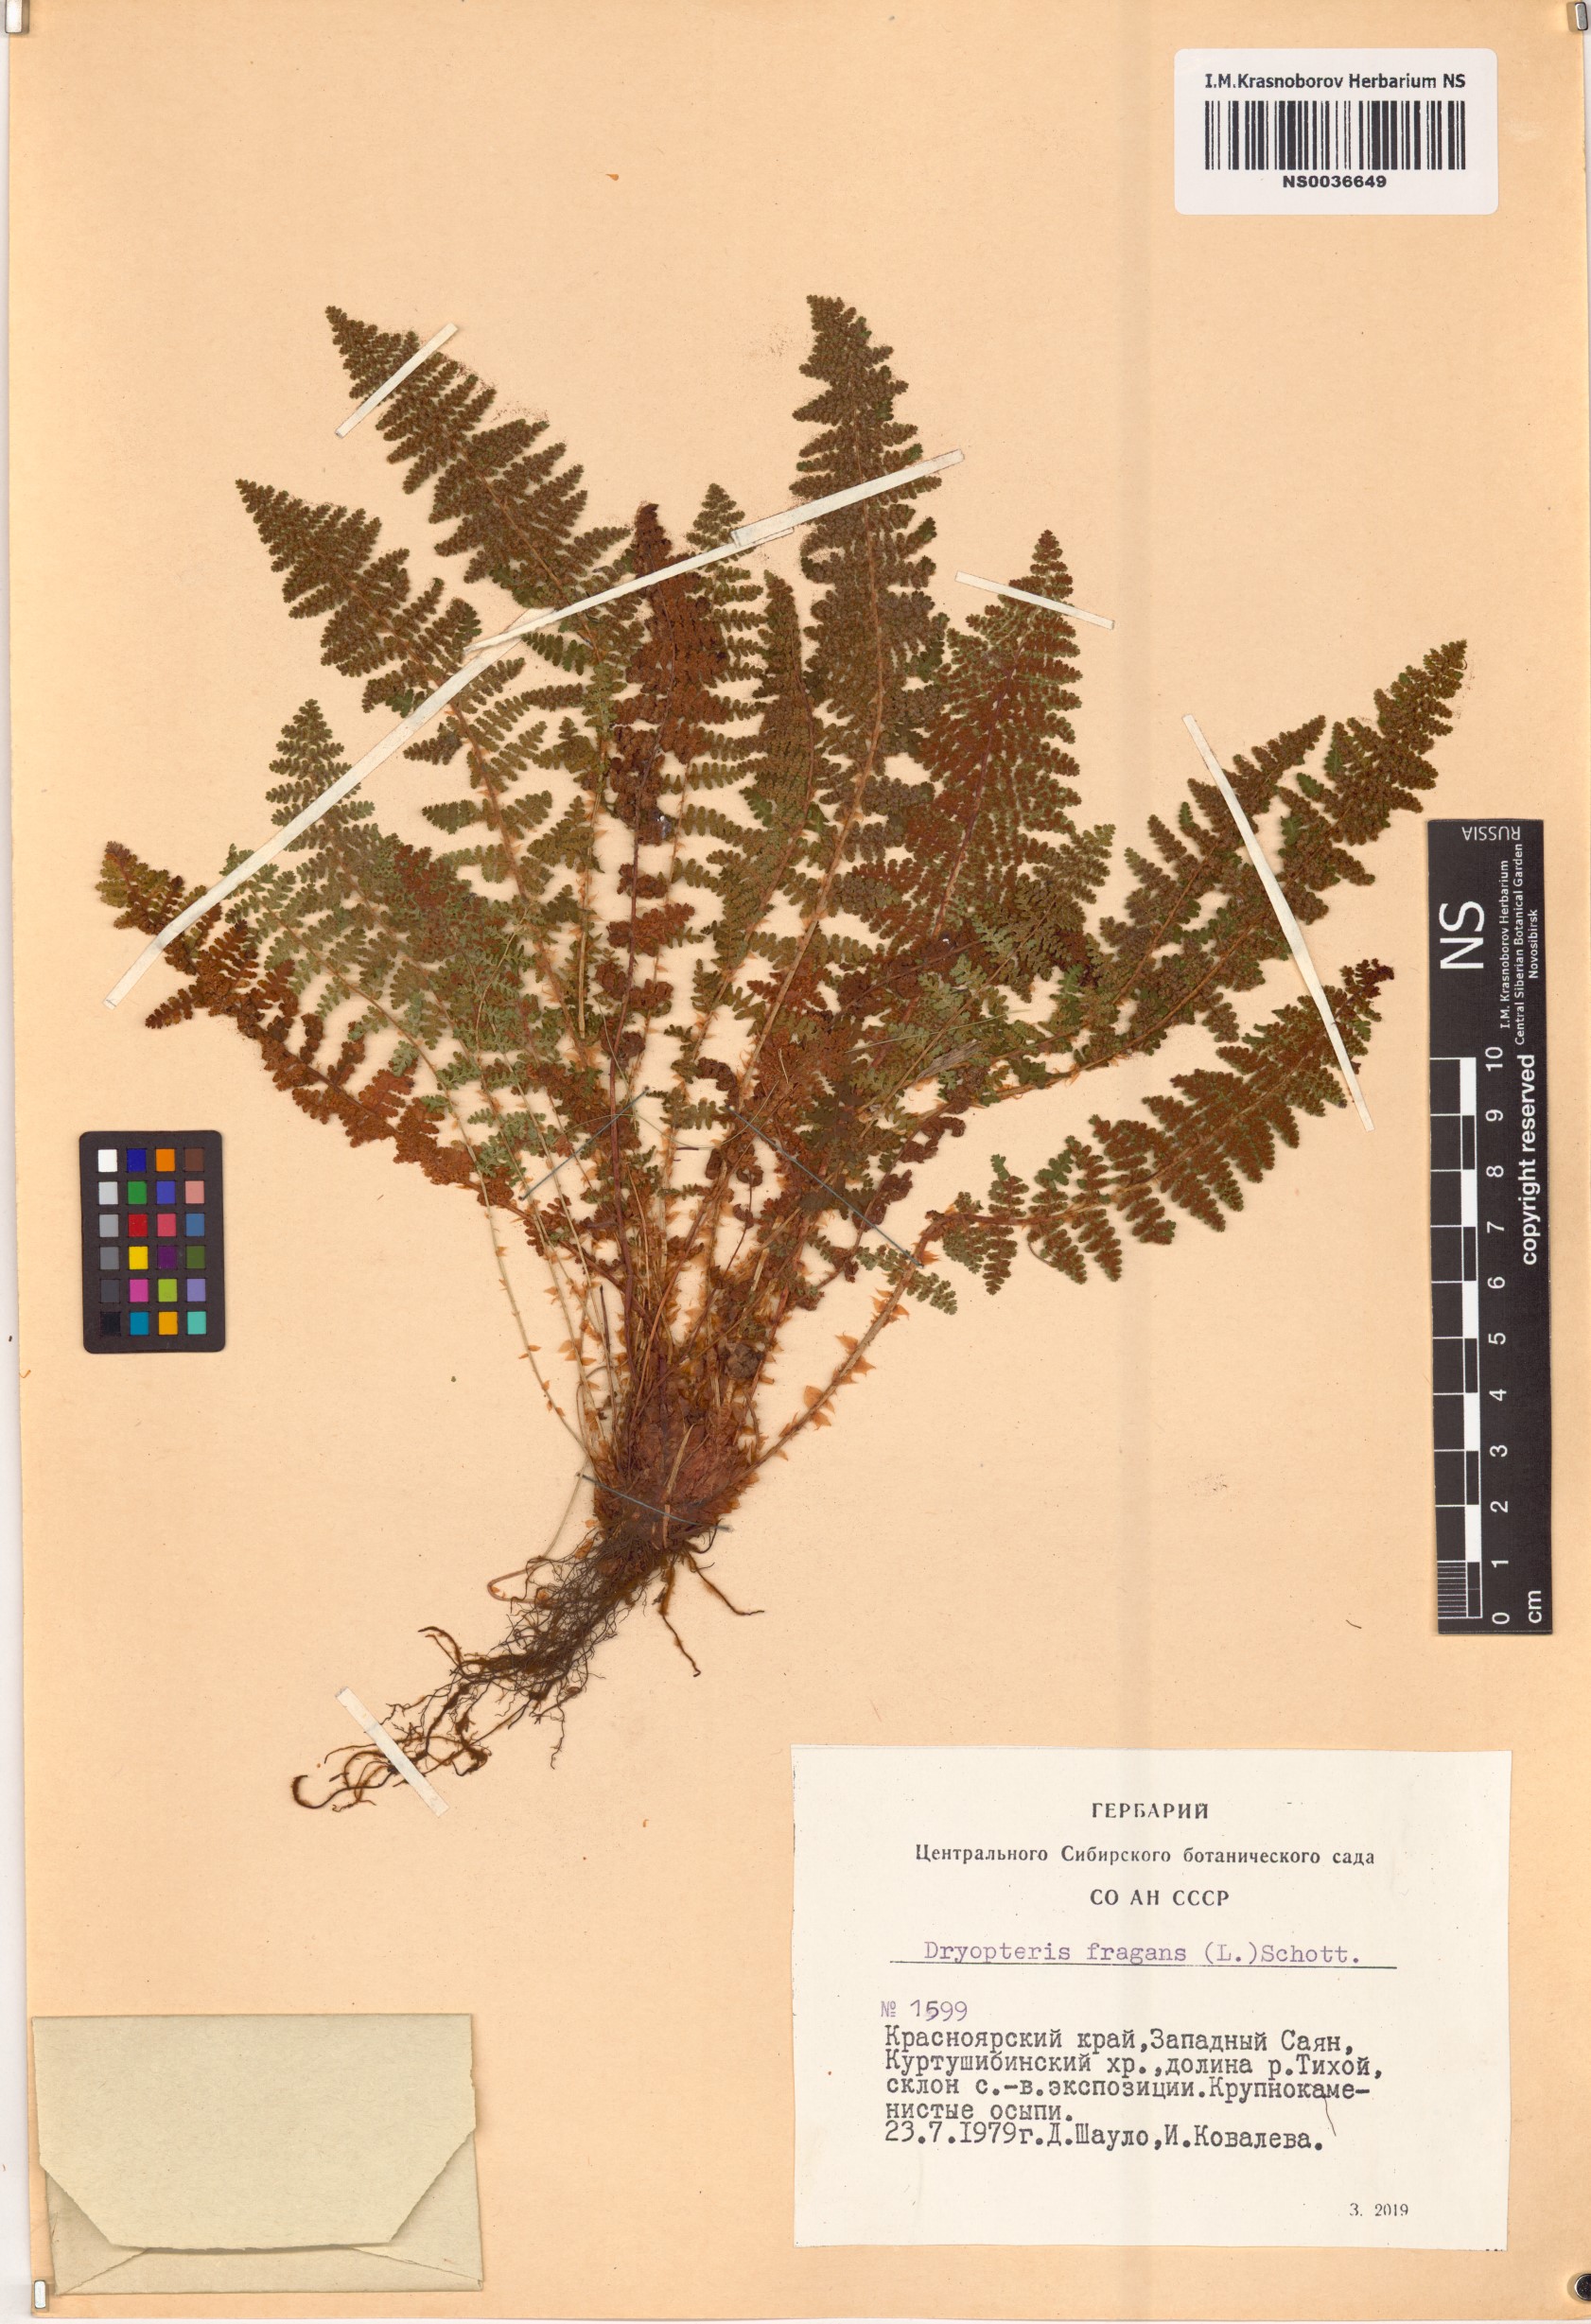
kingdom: Plantae
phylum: Tracheophyta
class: Polypodiopsida
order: Polypodiales
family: Dryopteridaceae
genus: Dryopteris
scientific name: Dryopteris fragrans
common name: Fragrant wood fern
